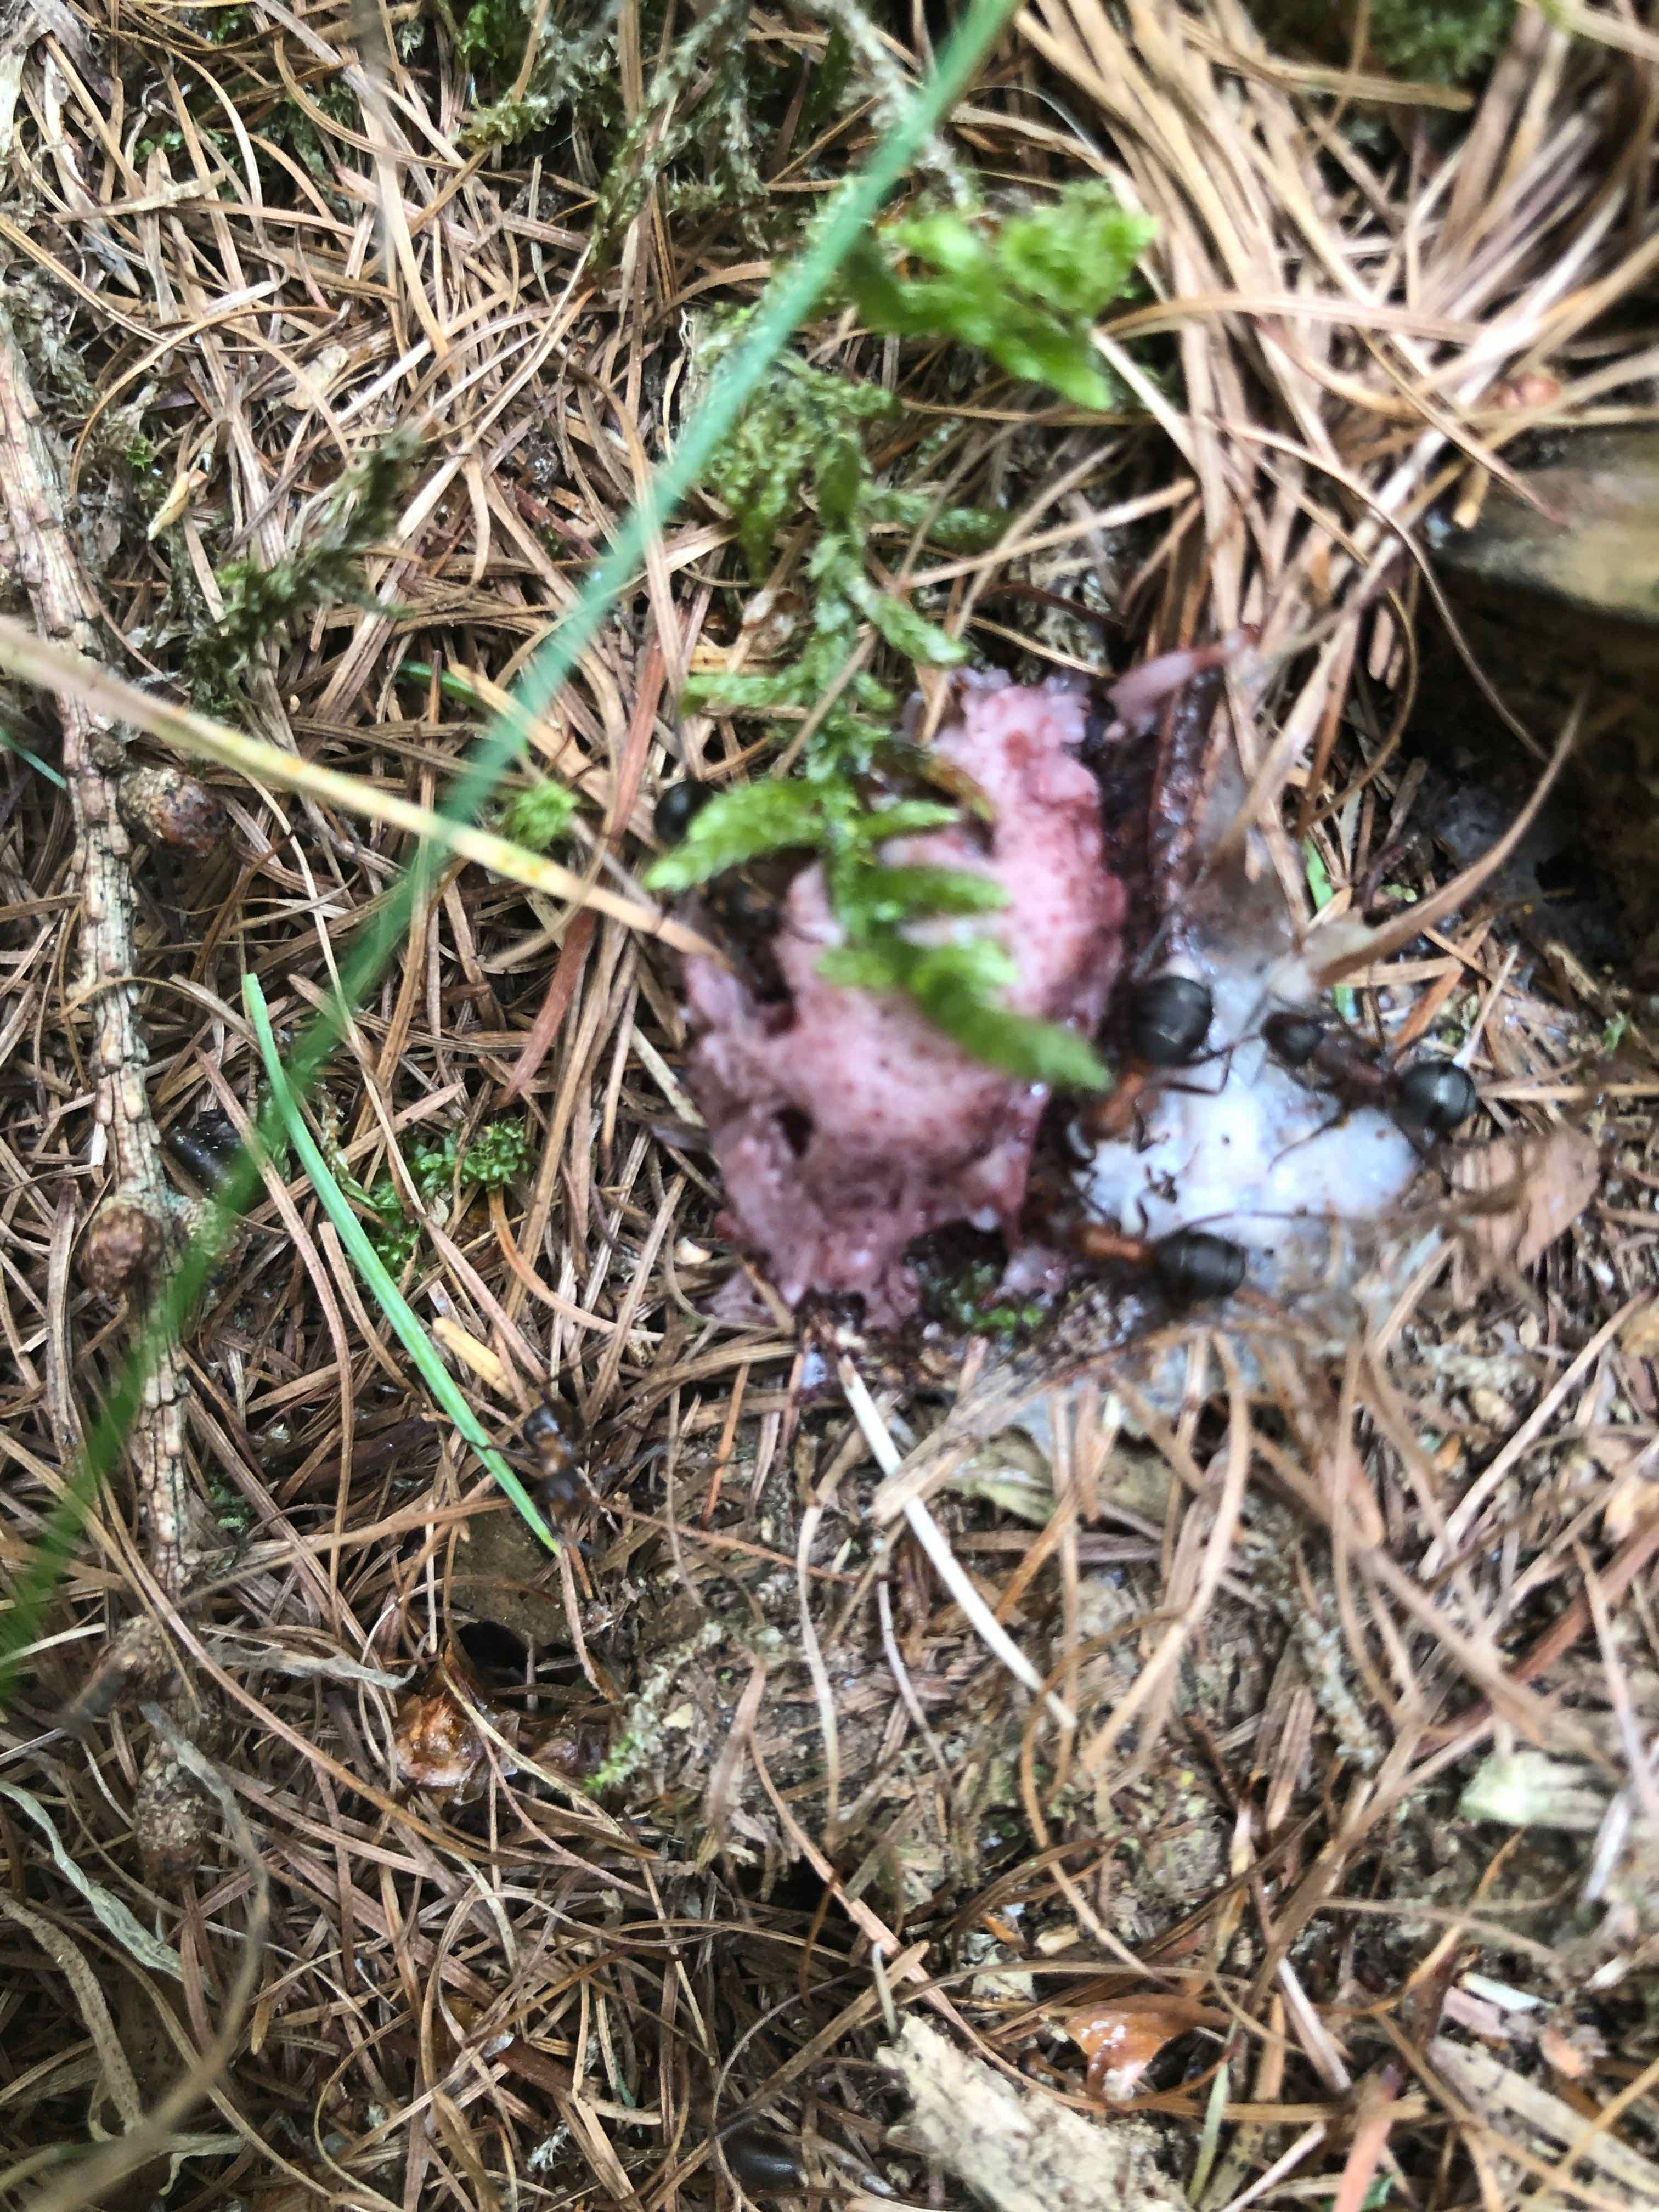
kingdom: Protozoa
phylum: Mycetozoa
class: Myxomycetes
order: Stemonitidales
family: Stemonitidaceae
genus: Stemonitis
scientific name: Stemonitis
